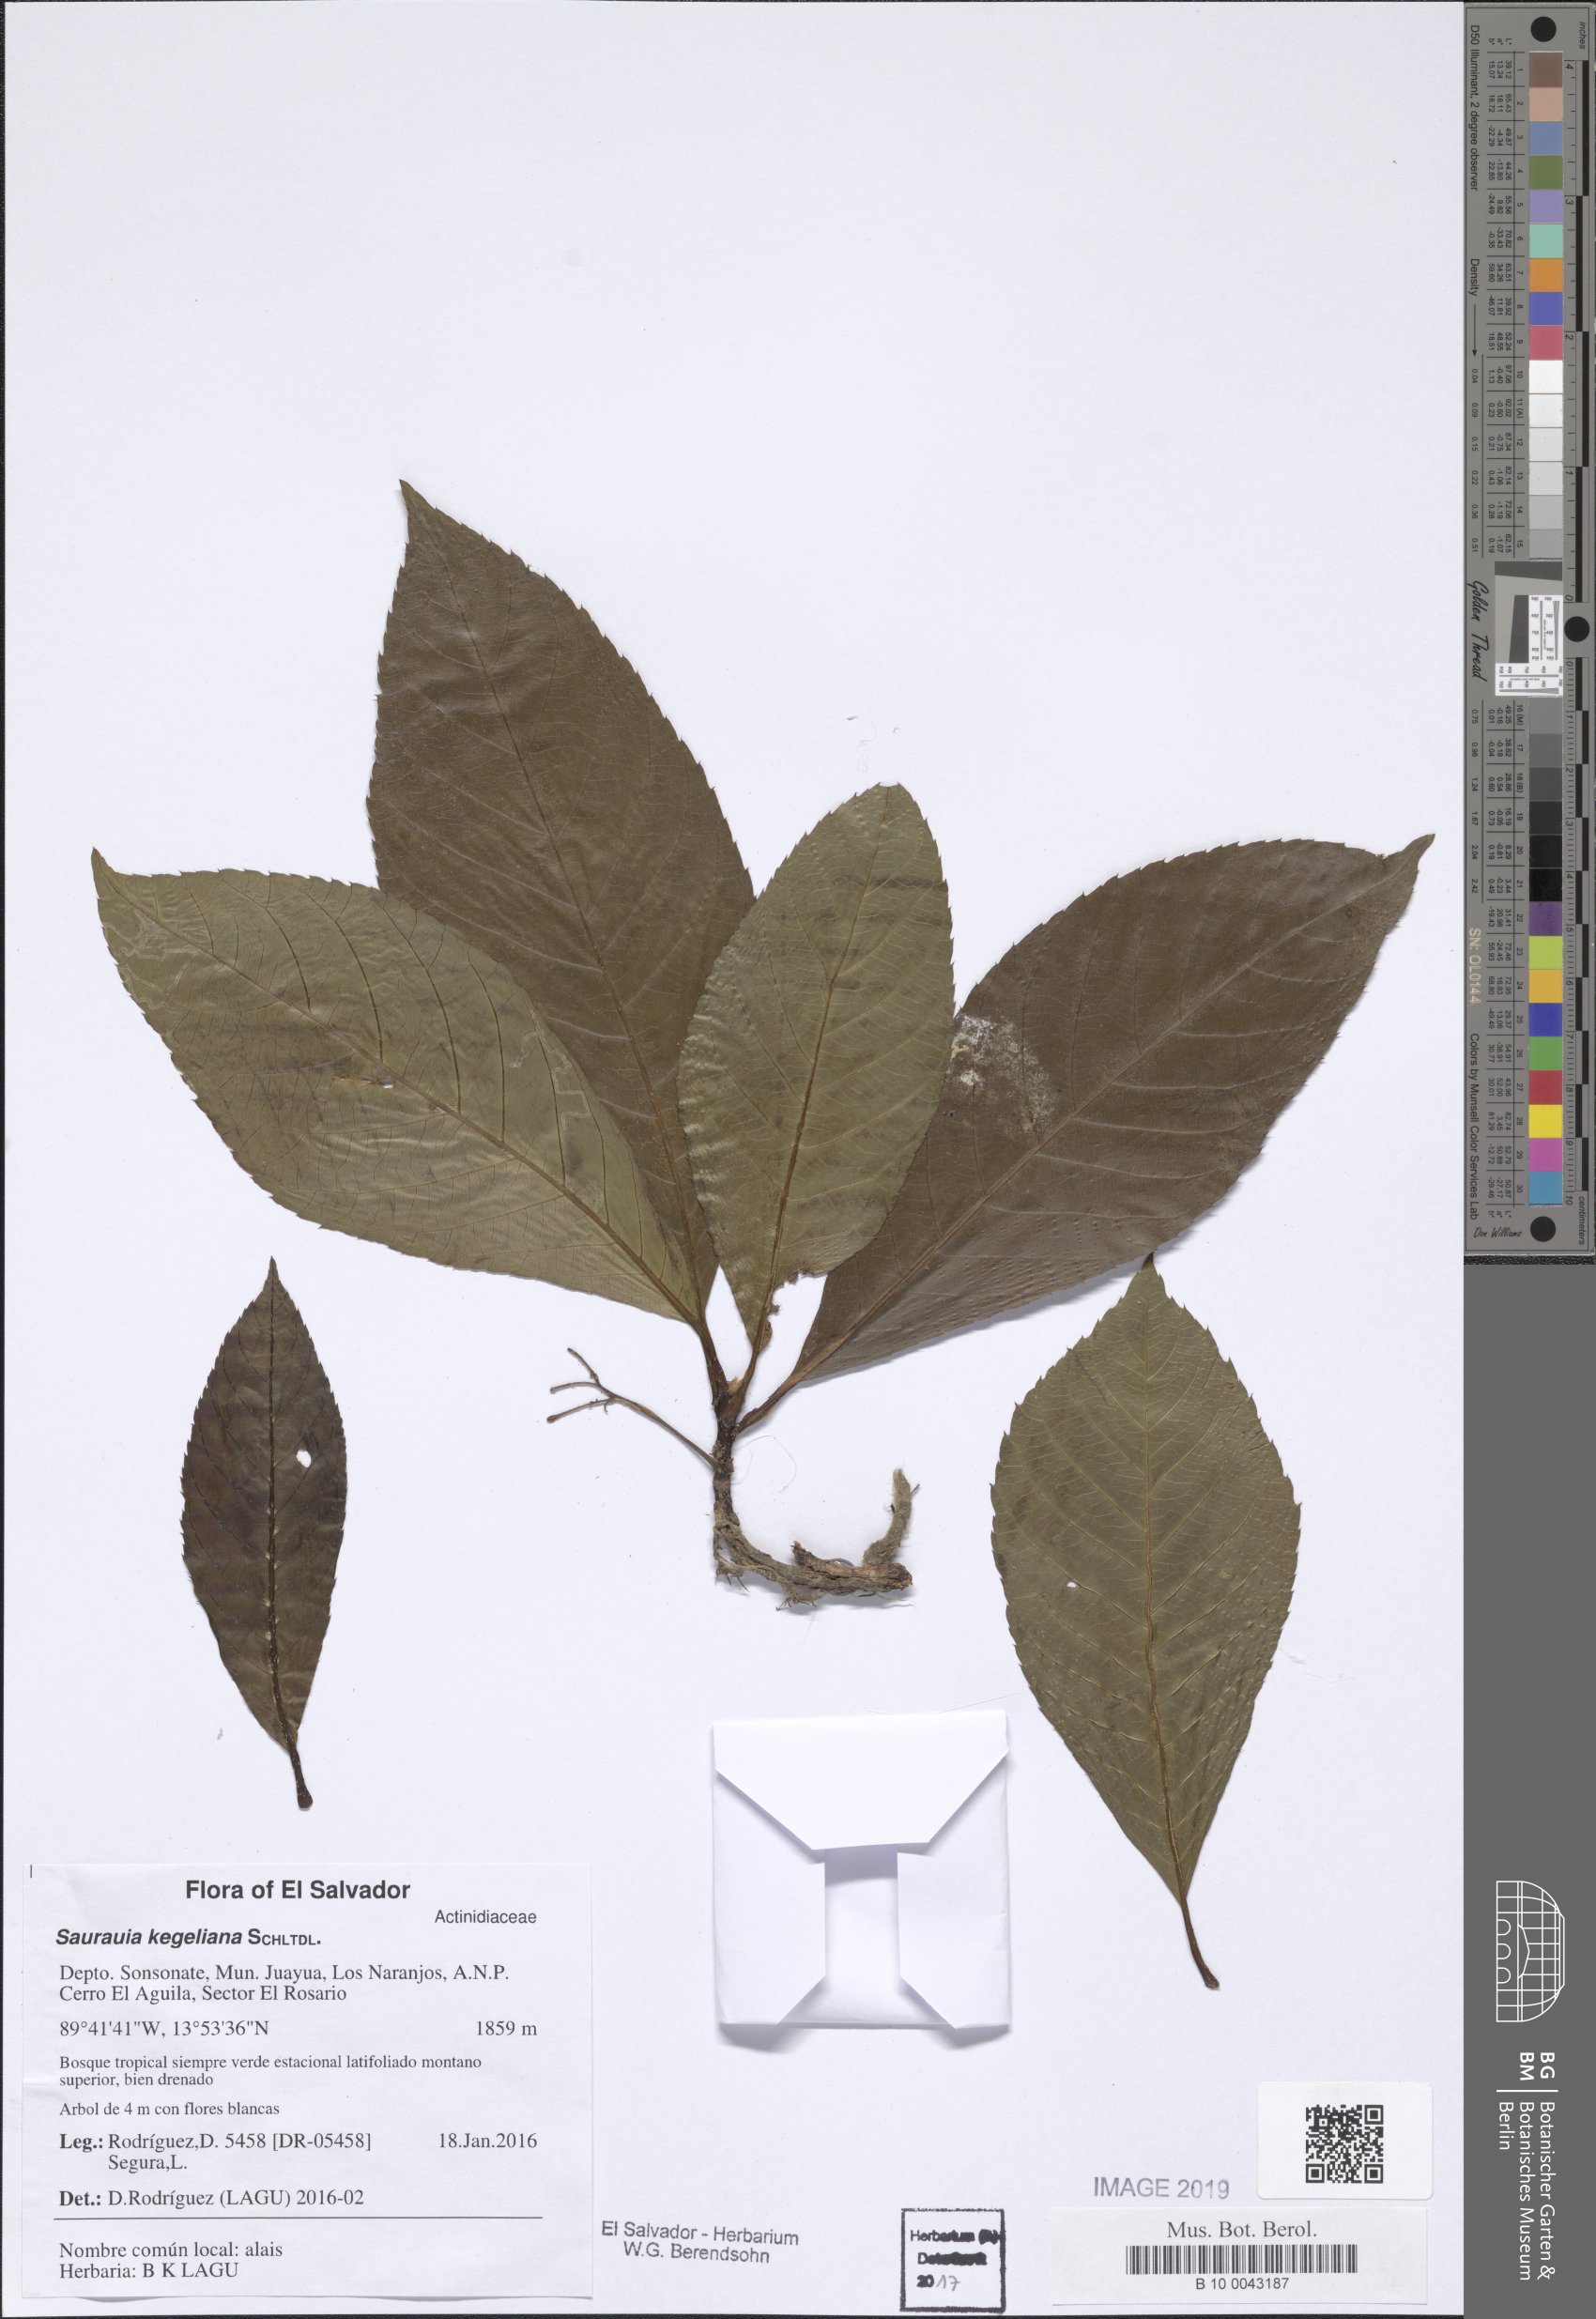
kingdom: Plantae
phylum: Tracheophyta
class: Magnoliopsida
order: Ericales
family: Actinidiaceae
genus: Saurauia
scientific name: Saurauia kegeliana
